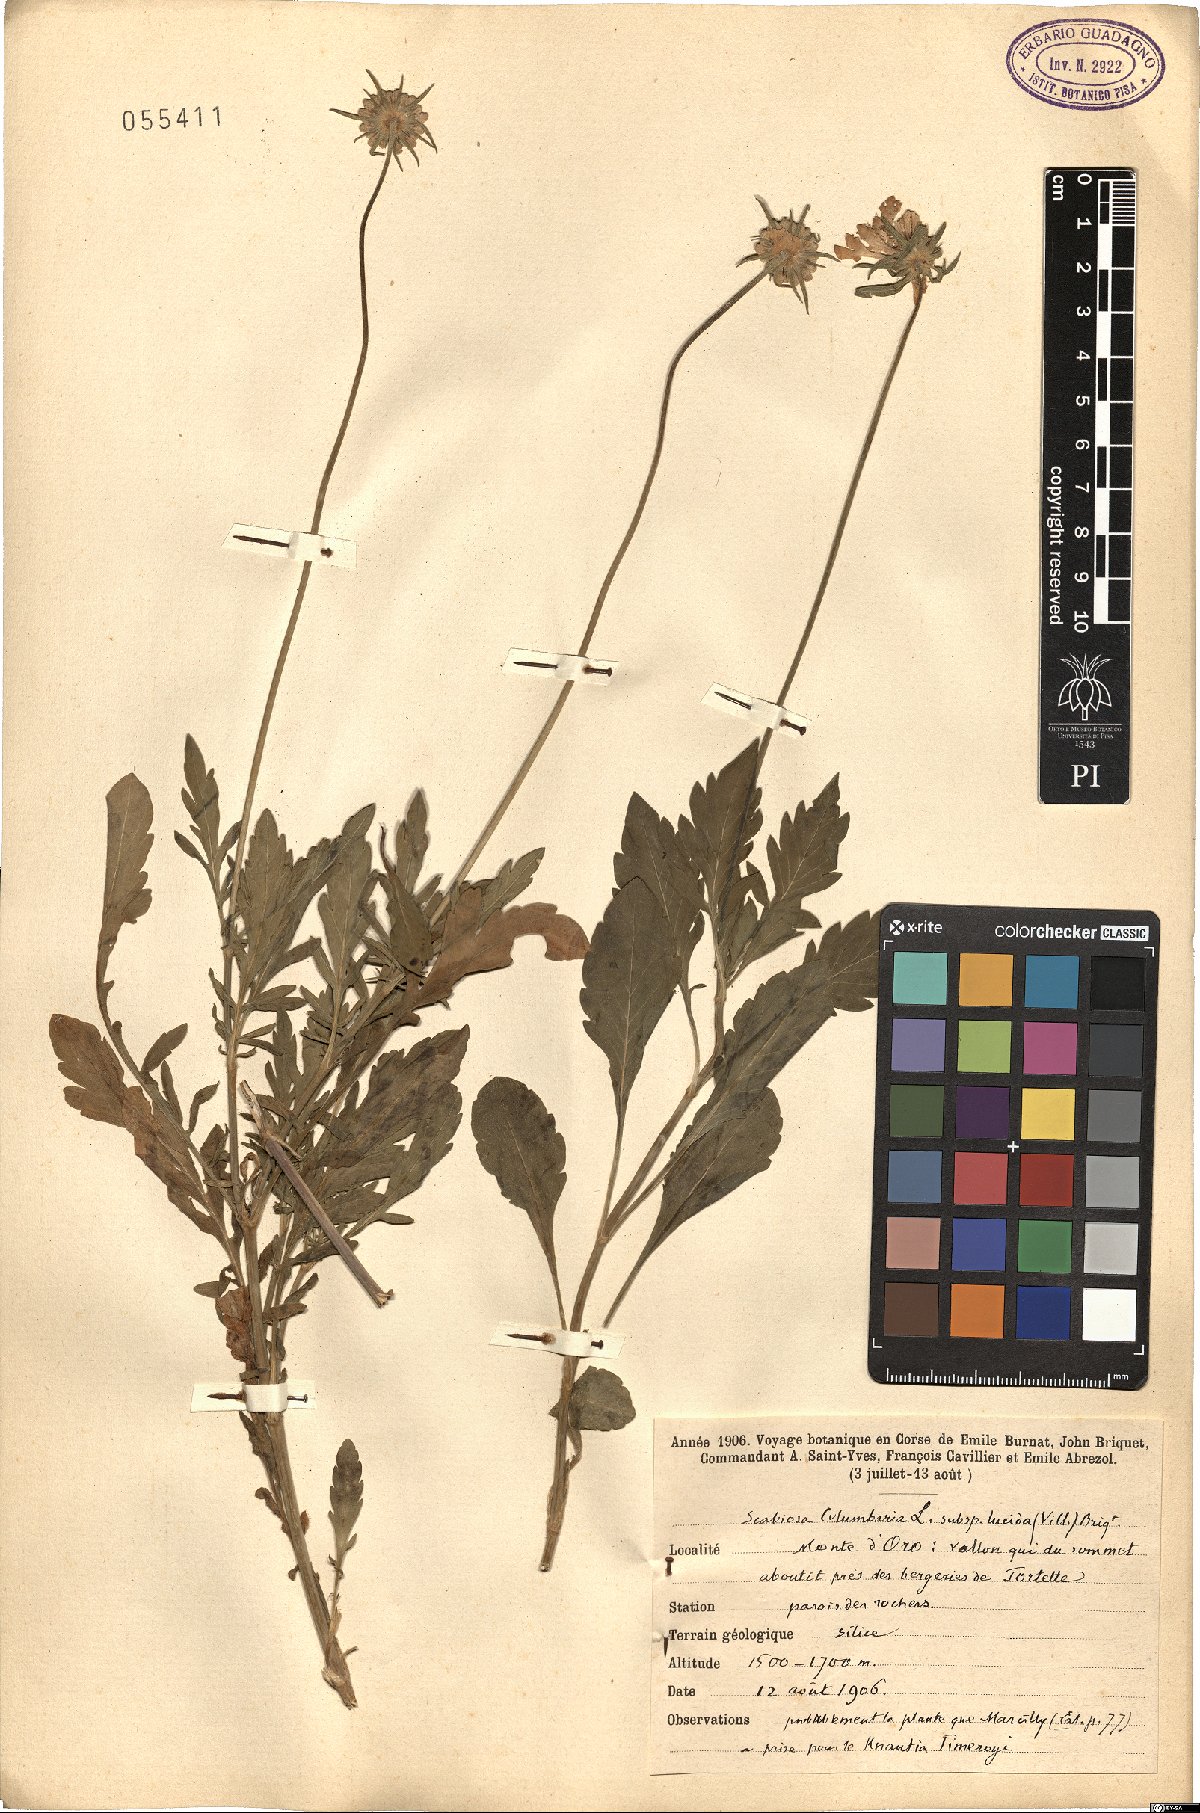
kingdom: Plantae
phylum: Tracheophyta
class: Magnoliopsida
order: Dipsacales
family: Caprifoliaceae
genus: Scabiosa
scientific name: Scabiosa lucida
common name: Shining scabious
